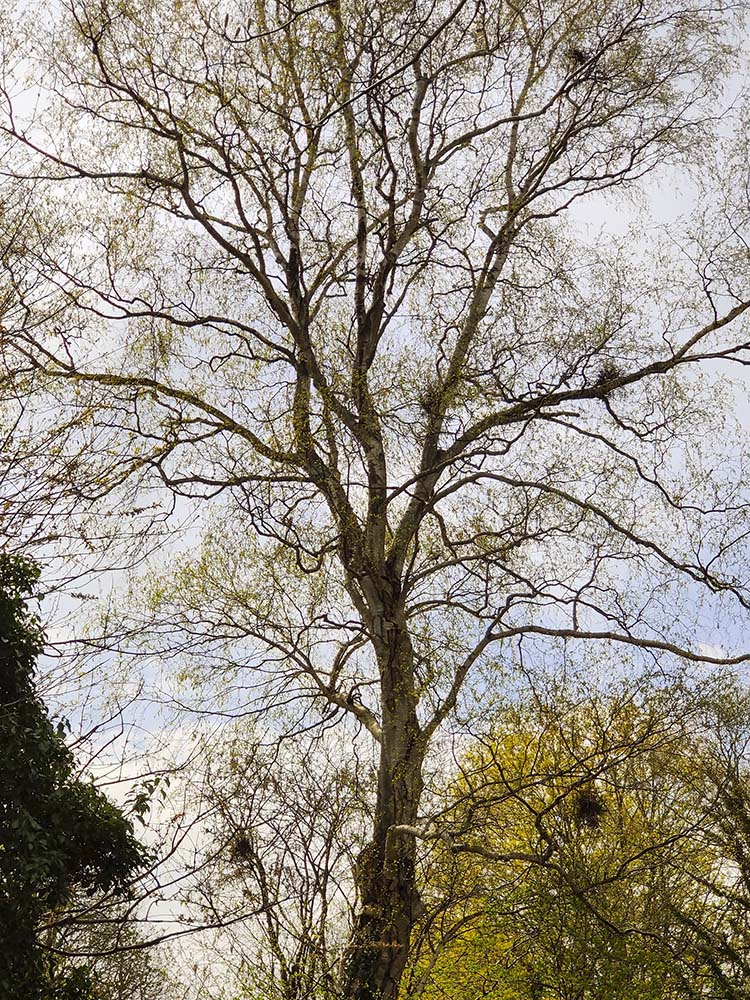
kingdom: Fungi
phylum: Ascomycota
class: Taphrinomycetes
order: Taphrinales
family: Taphrinaceae
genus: Taphrina
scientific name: Taphrina betulina
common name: hekse-sækdug
